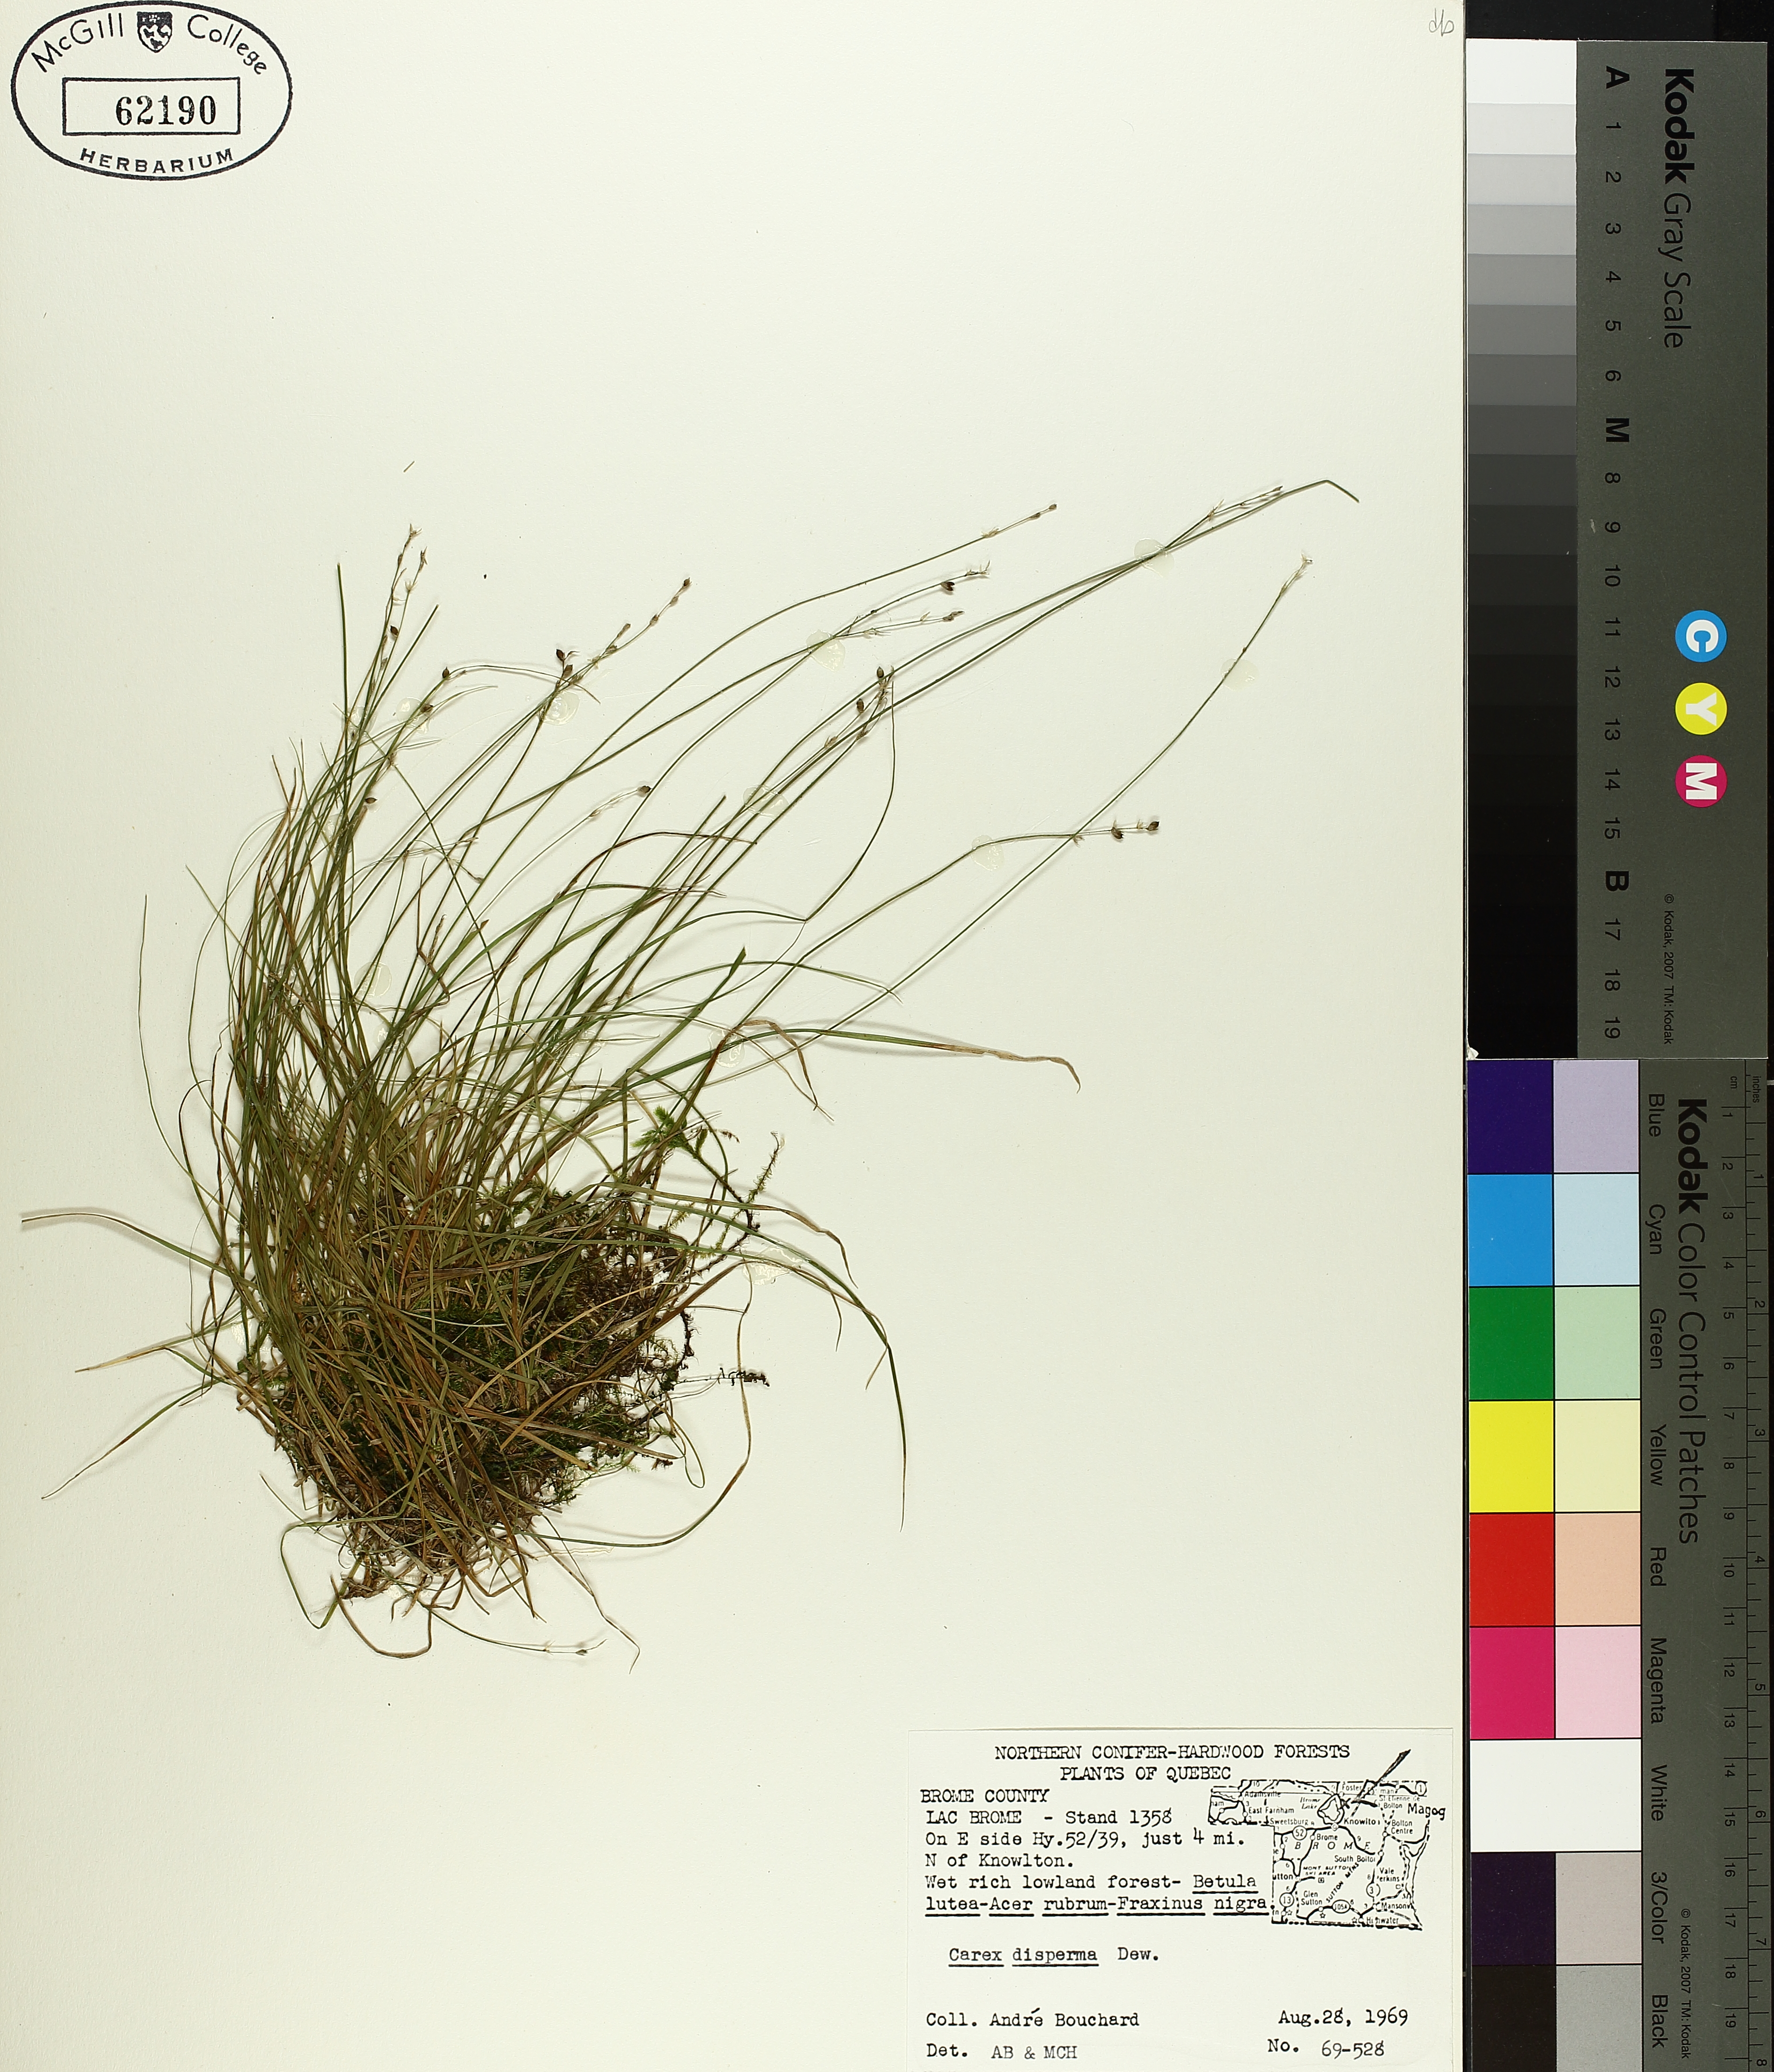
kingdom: Plantae
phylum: Tracheophyta
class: Liliopsida
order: Poales
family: Cyperaceae
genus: Carex
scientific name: Carex disperma
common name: Short-leaved sedge
